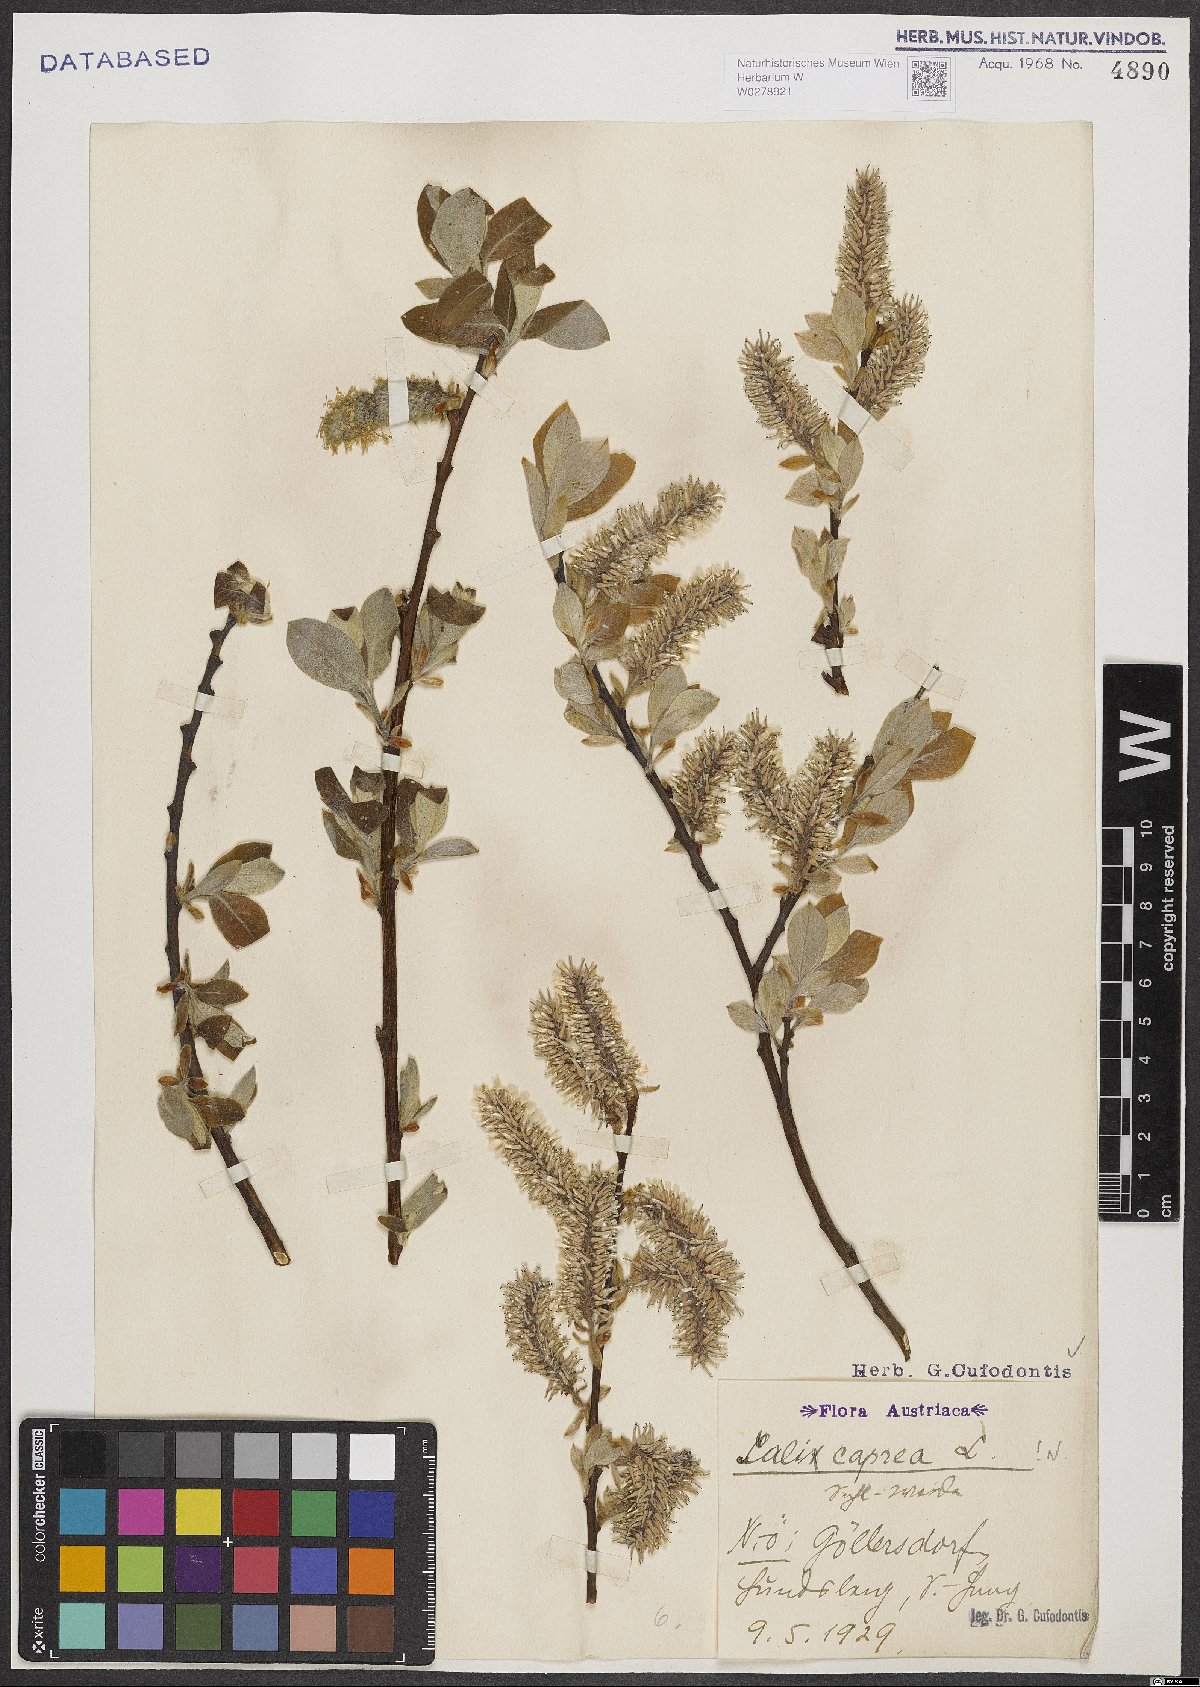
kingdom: Plantae
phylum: Tracheophyta
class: Magnoliopsida
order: Malpighiales
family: Salicaceae
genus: Salix
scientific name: Salix caprea
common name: Goat willow
